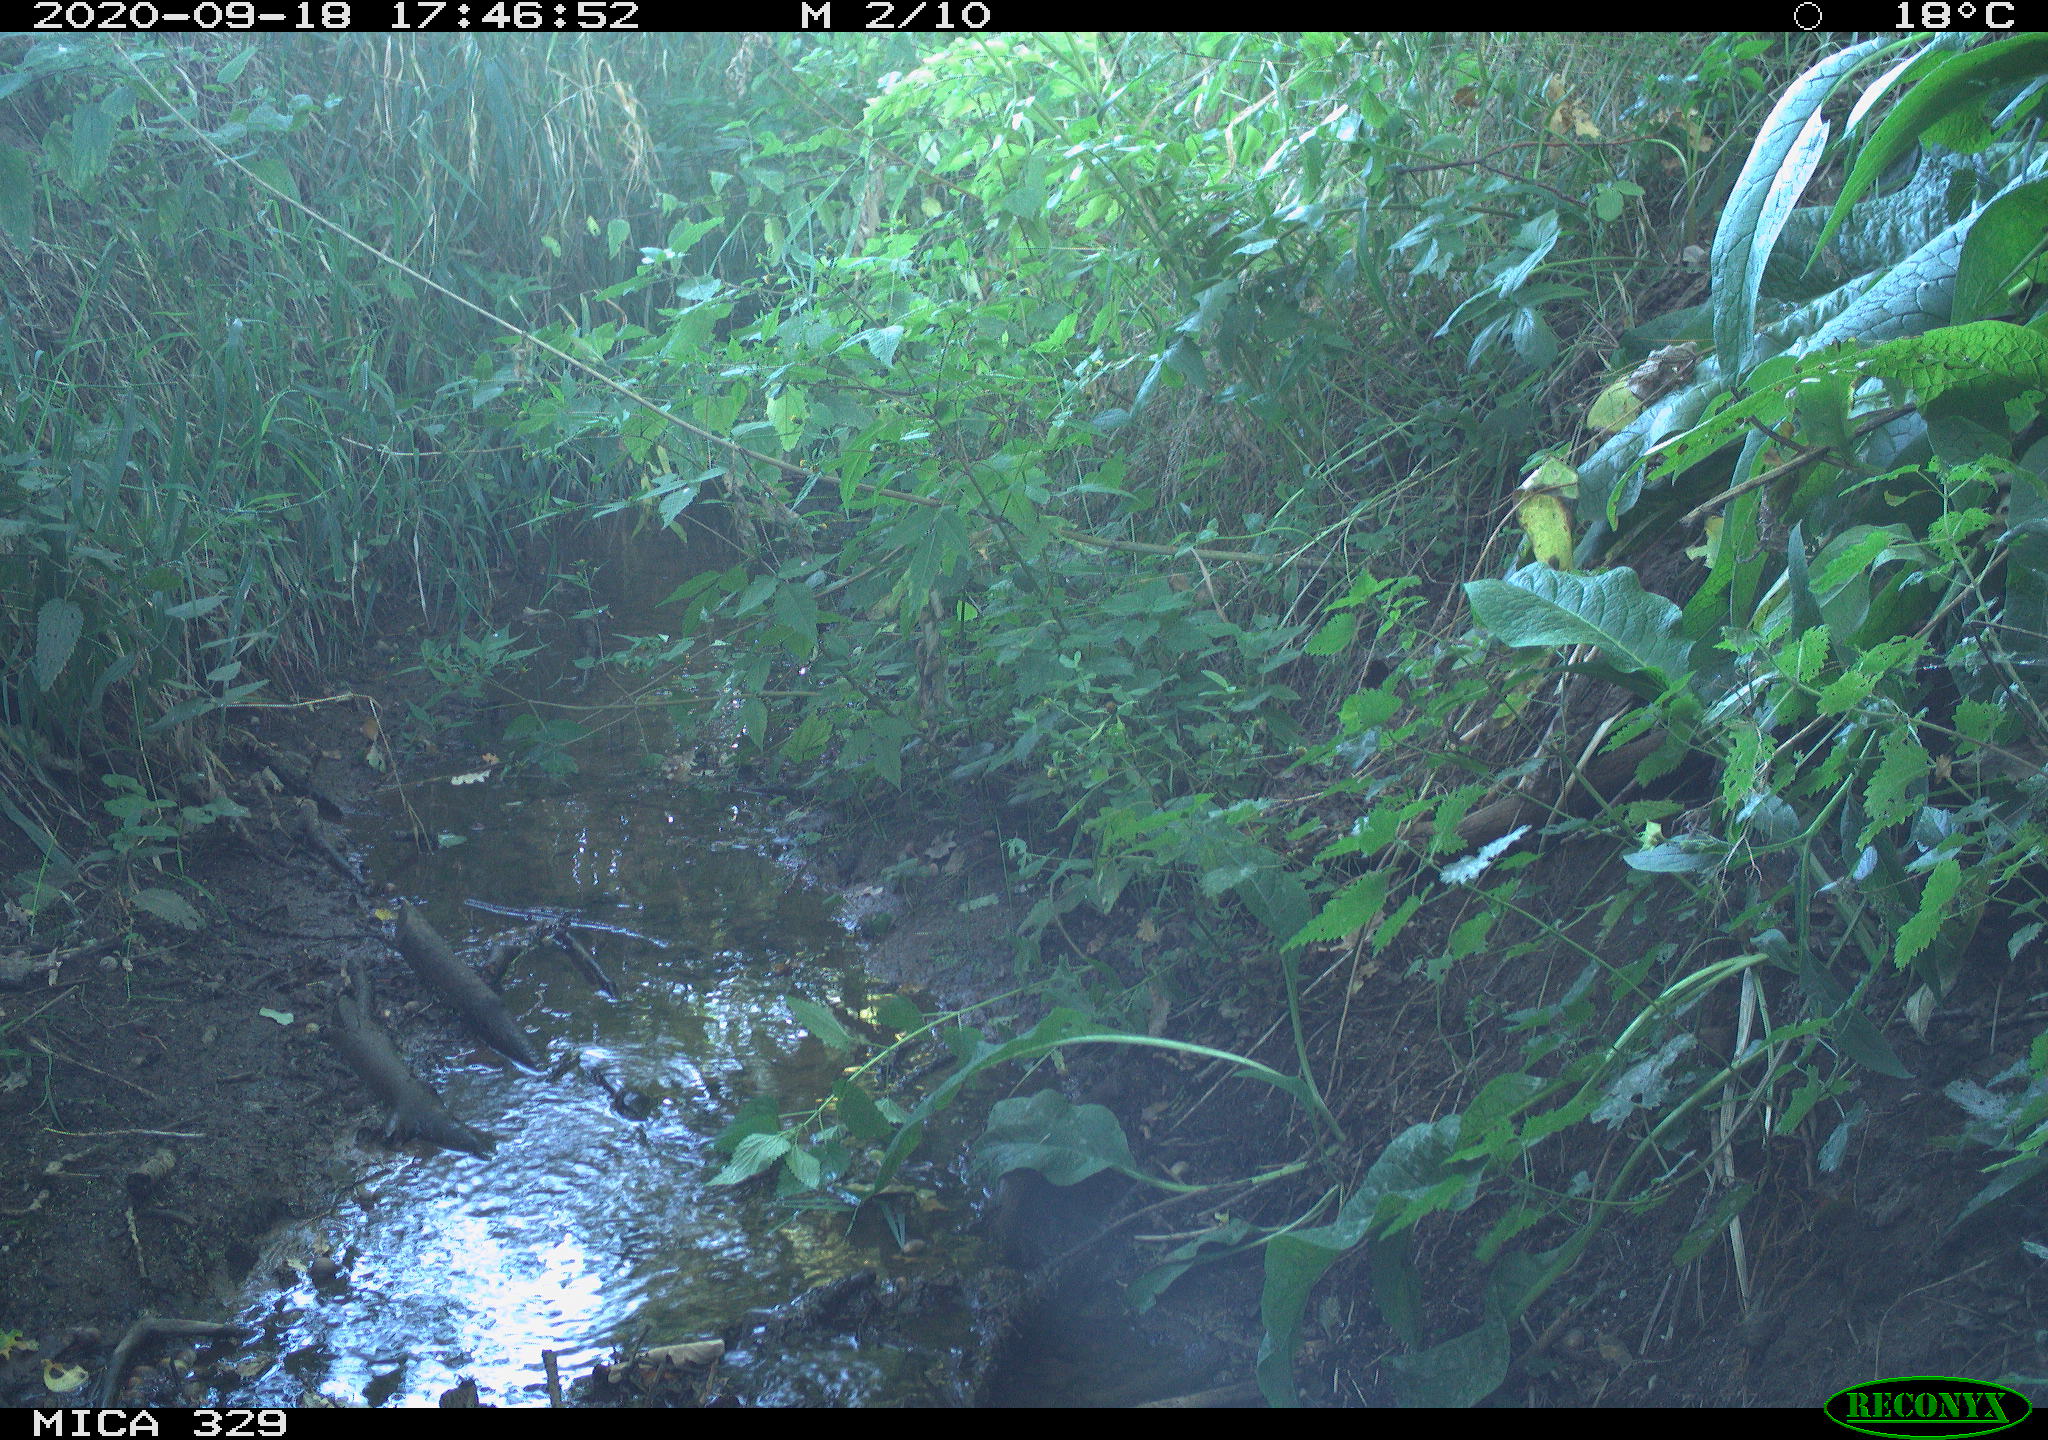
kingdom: Animalia
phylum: Chordata
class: Aves
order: Passeriformes
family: Fringillidae
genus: Fringilla
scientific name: Fringilla coelebs
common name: Common chaffinch
